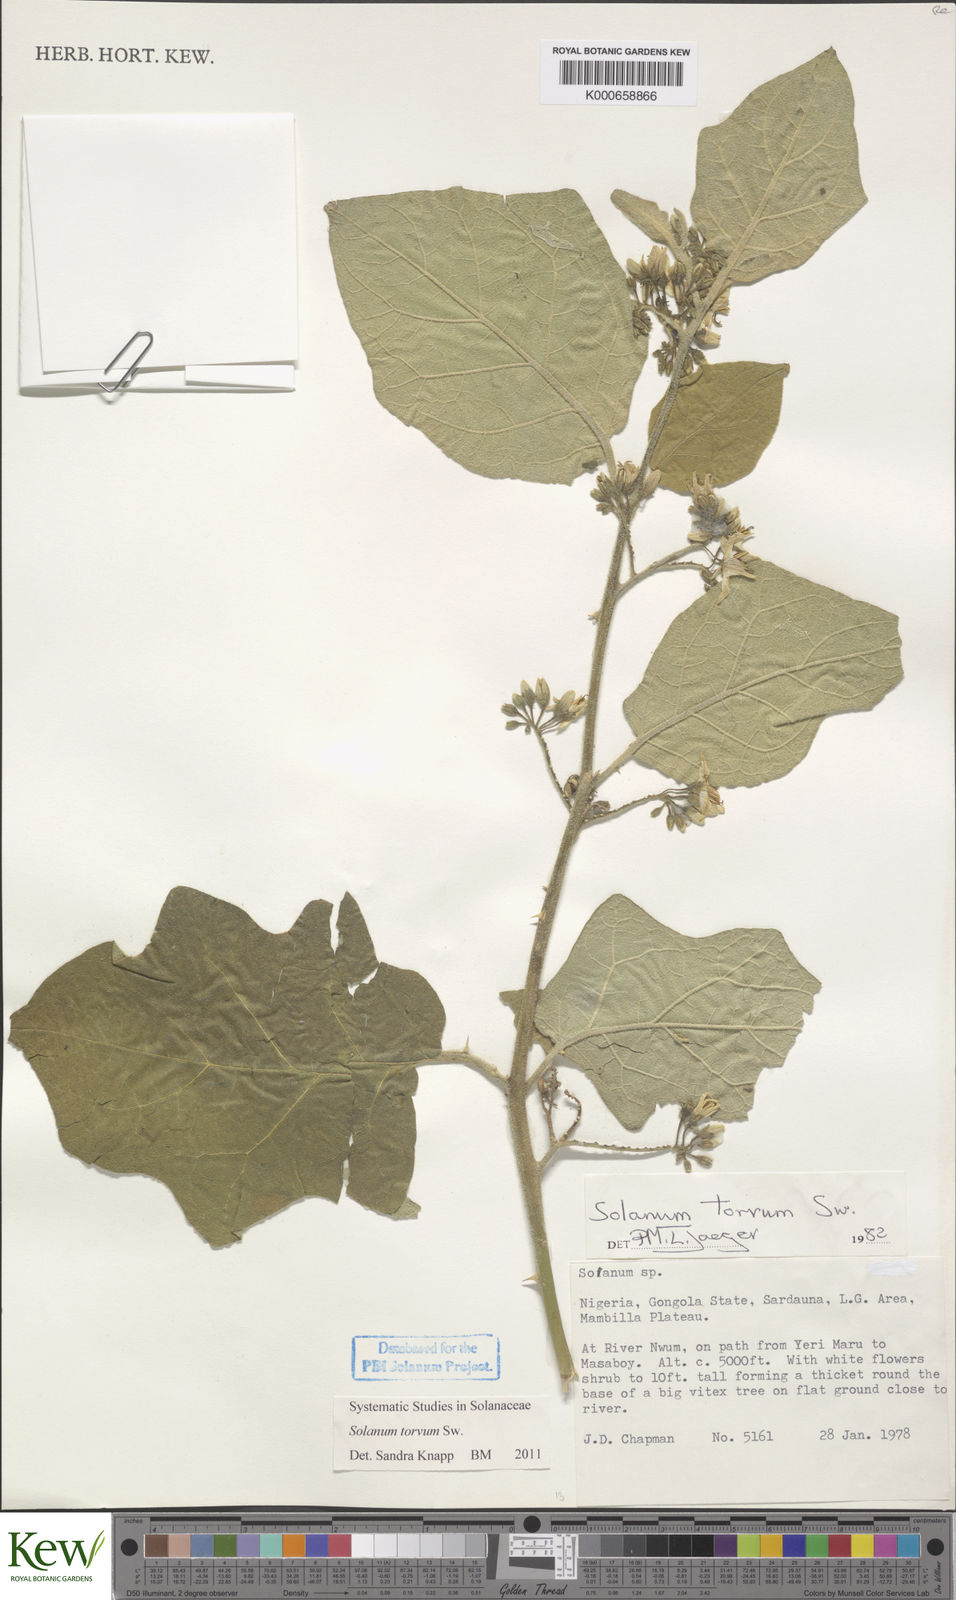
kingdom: Plantae
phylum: Tracheophyta
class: Magnoliopsida
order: Solanales
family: Solanaceae
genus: Solanum
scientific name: Solanum torvum
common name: Turkey berry
